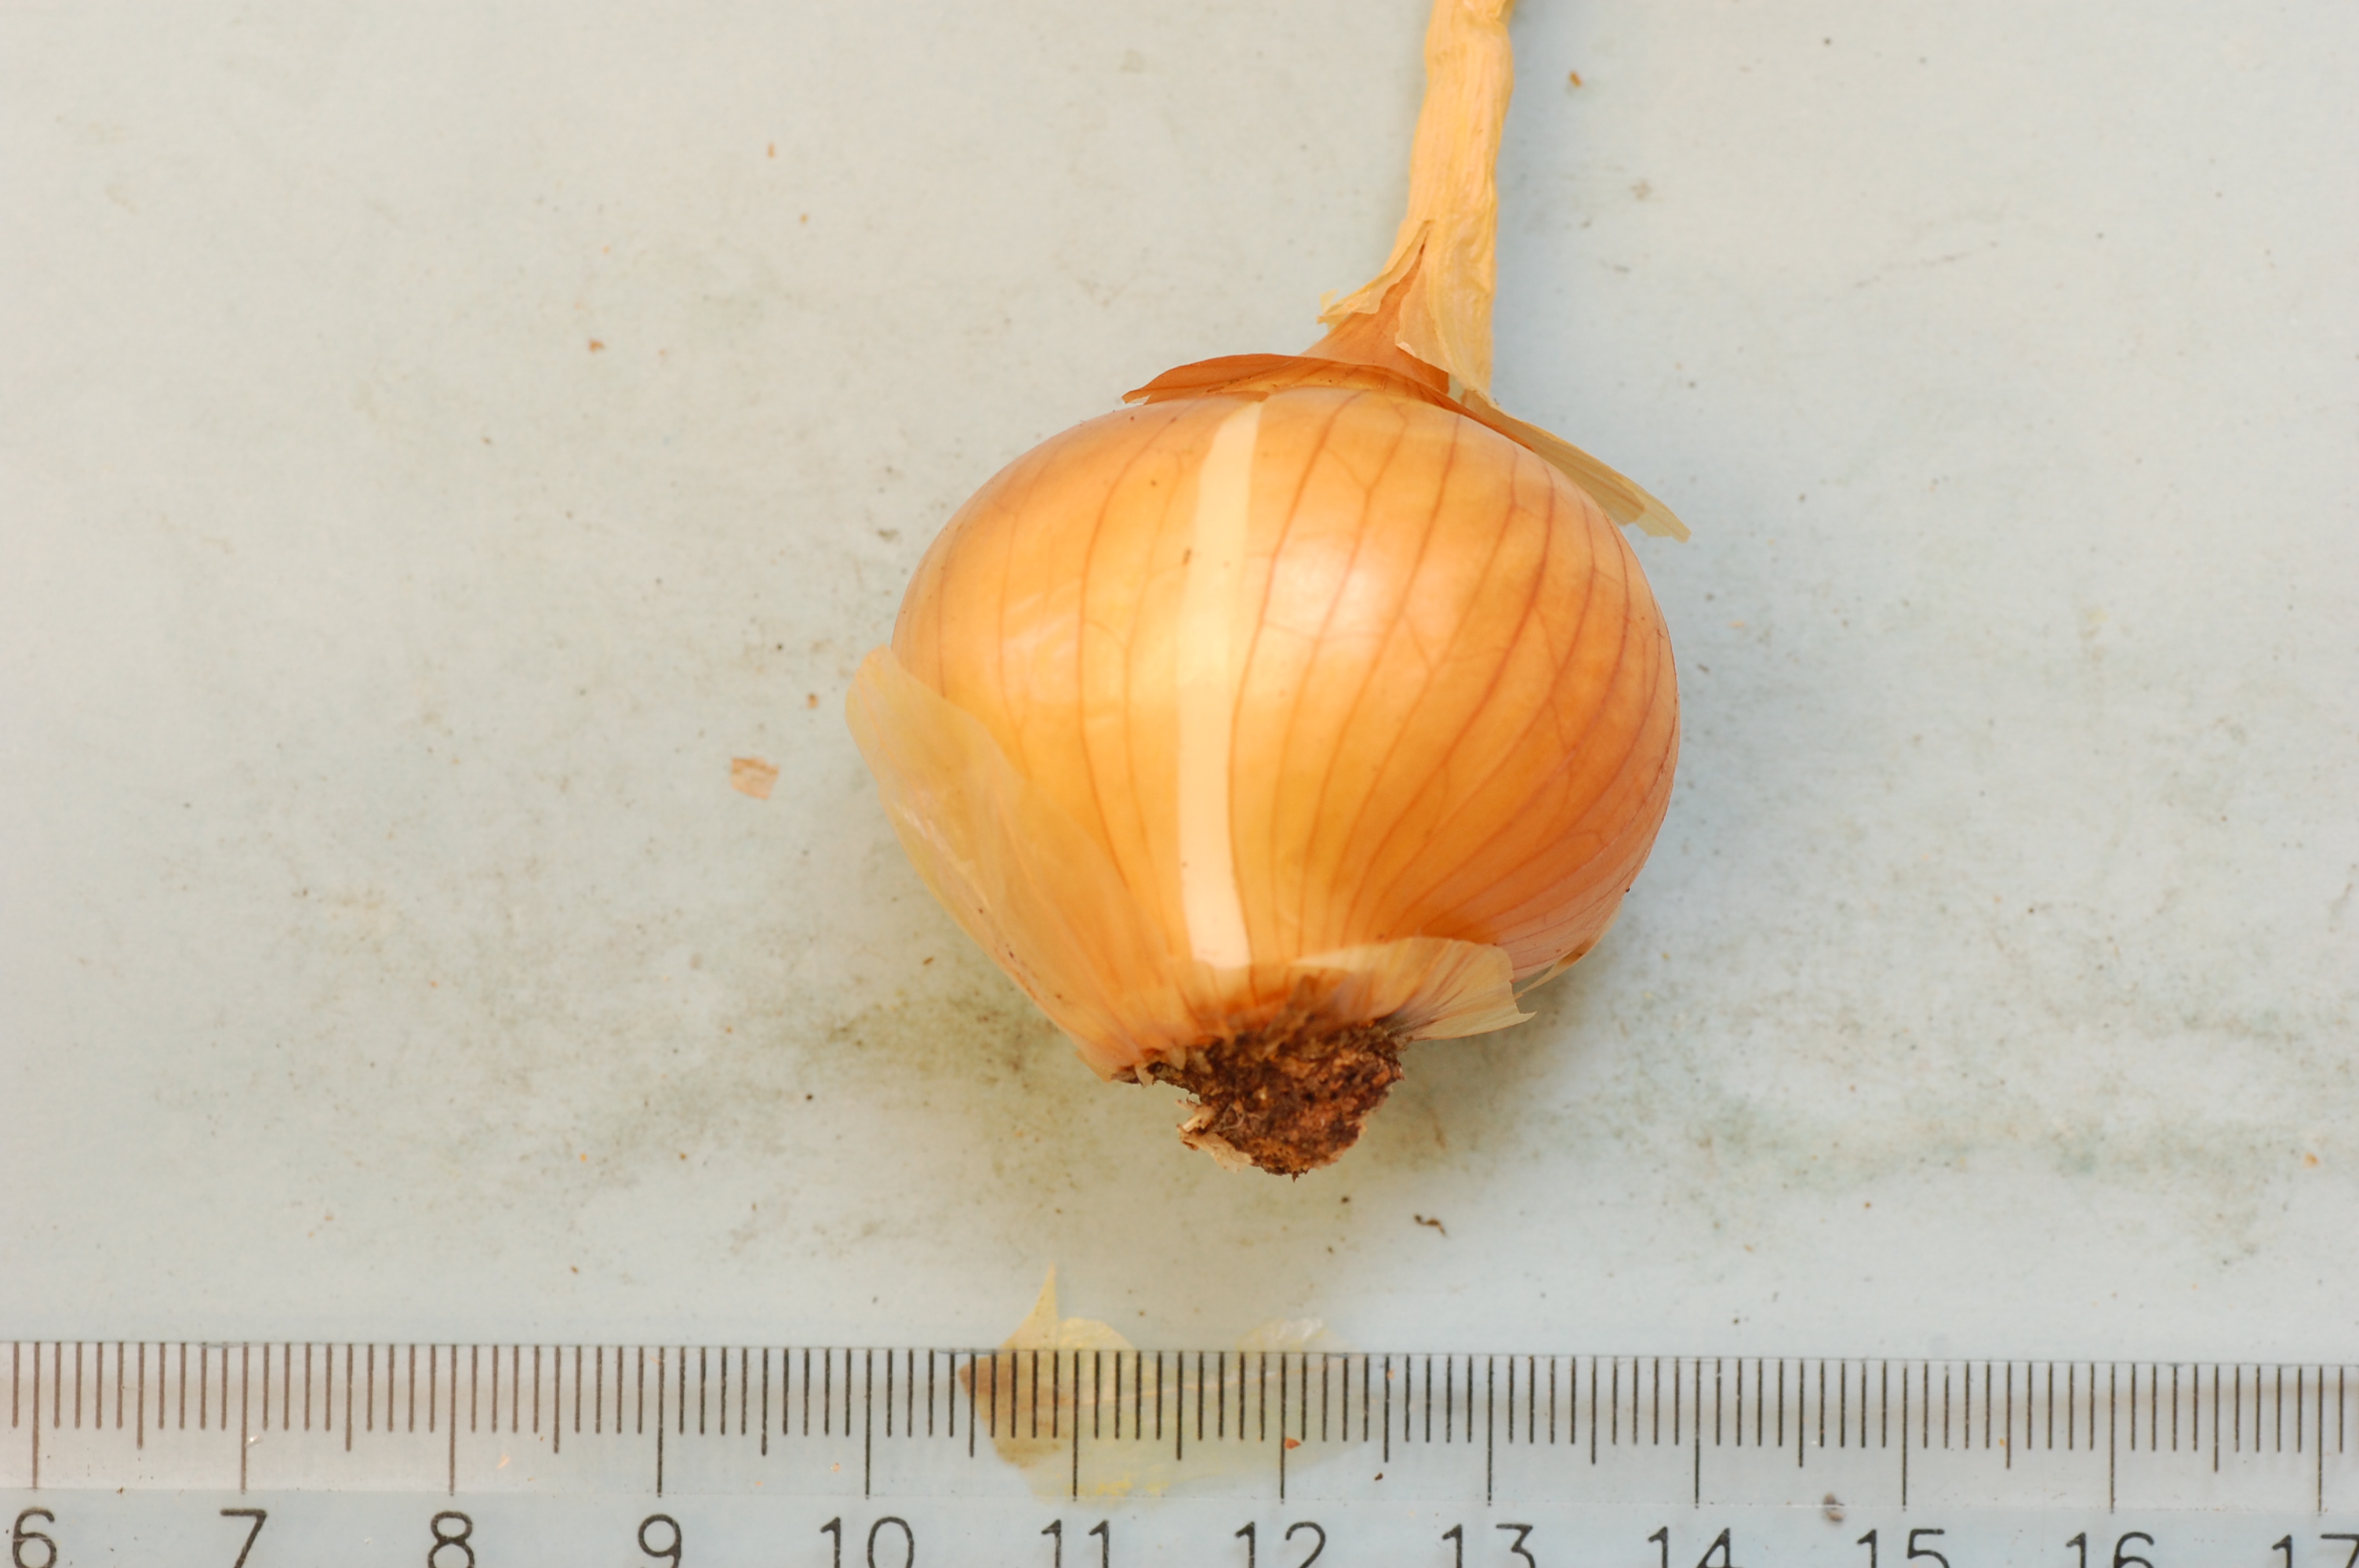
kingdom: Plantae
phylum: Tracheophyta
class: Liliopsida
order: Asparagales
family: Amaryllidaceae
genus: Allium
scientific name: Allium cepa
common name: Onion
